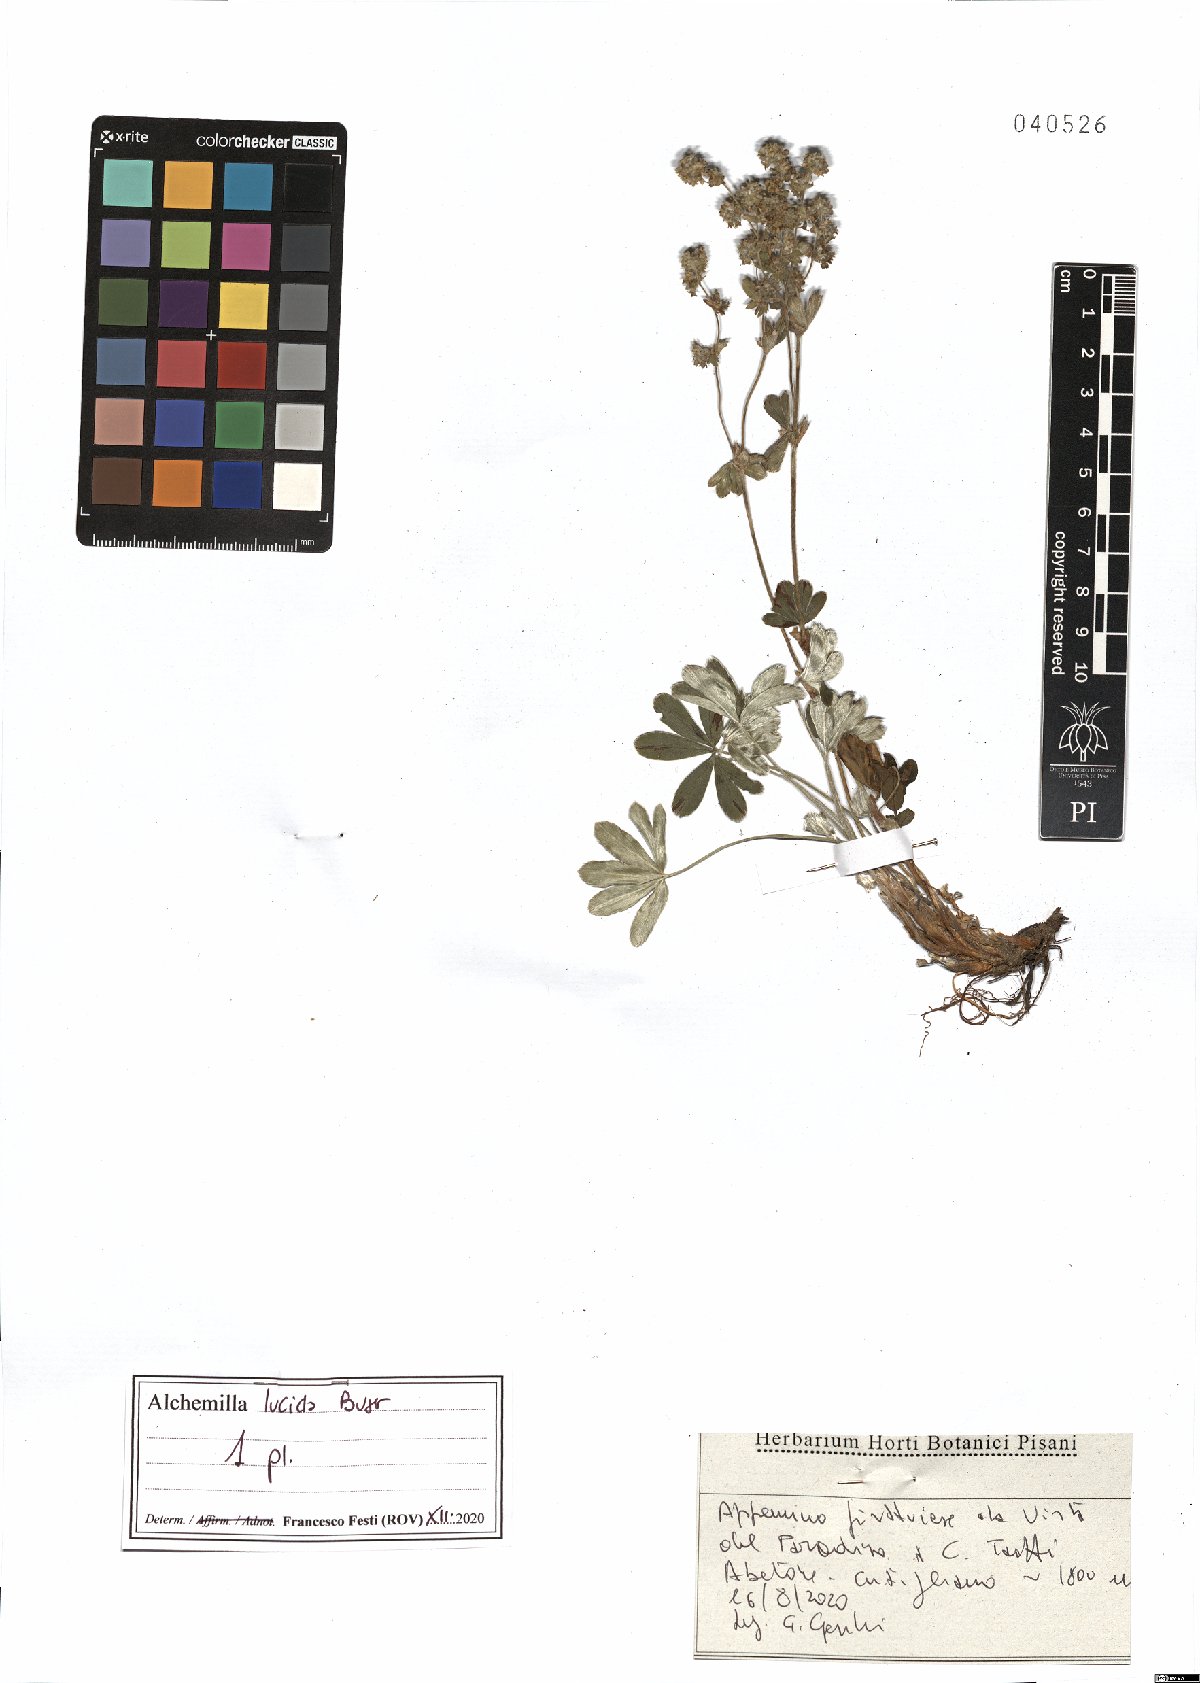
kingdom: Plantae
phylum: Tracheophyta
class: Magnoliopsida
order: Rosales
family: Rosaceae
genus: Alchemilla
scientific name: Alchemilla lucida
